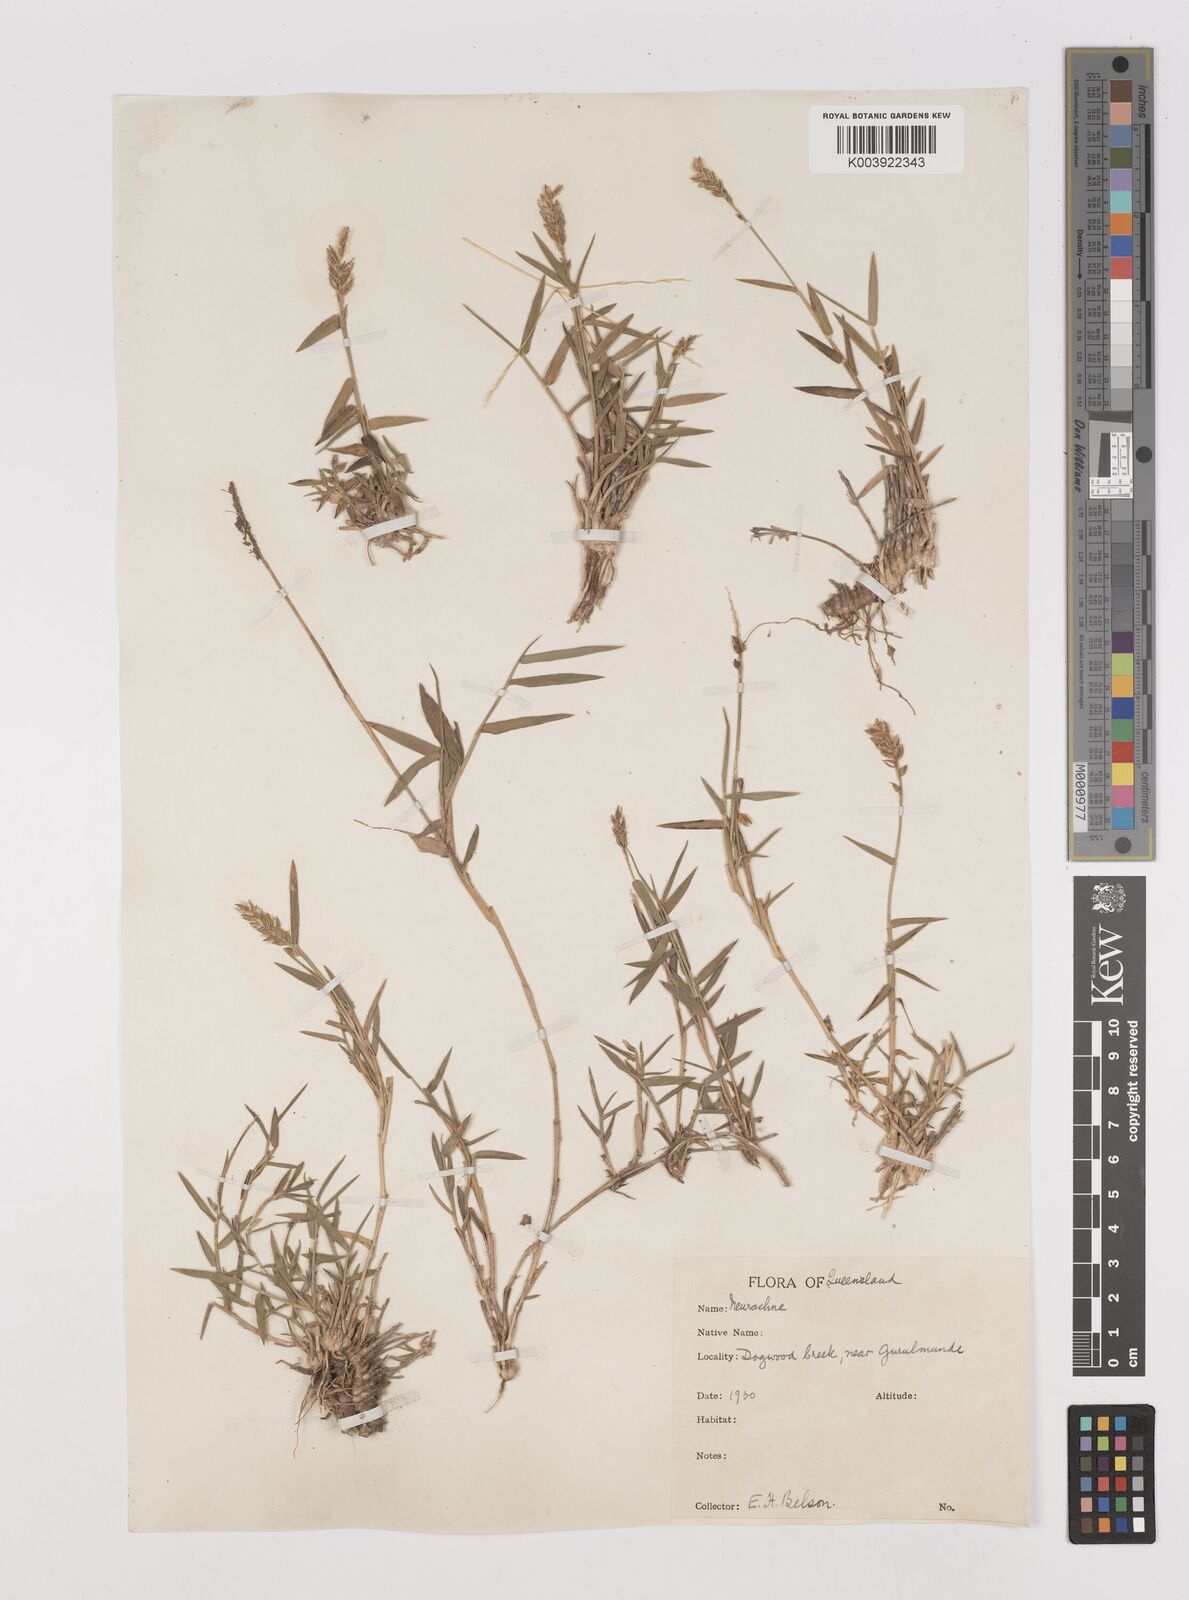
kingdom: Plantae
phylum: Tracheophyta
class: Liliopsida
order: Poales
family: Poaceae
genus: Thyridolepis
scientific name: Thyridolepis mitchelliana
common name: Rock tassel grass
